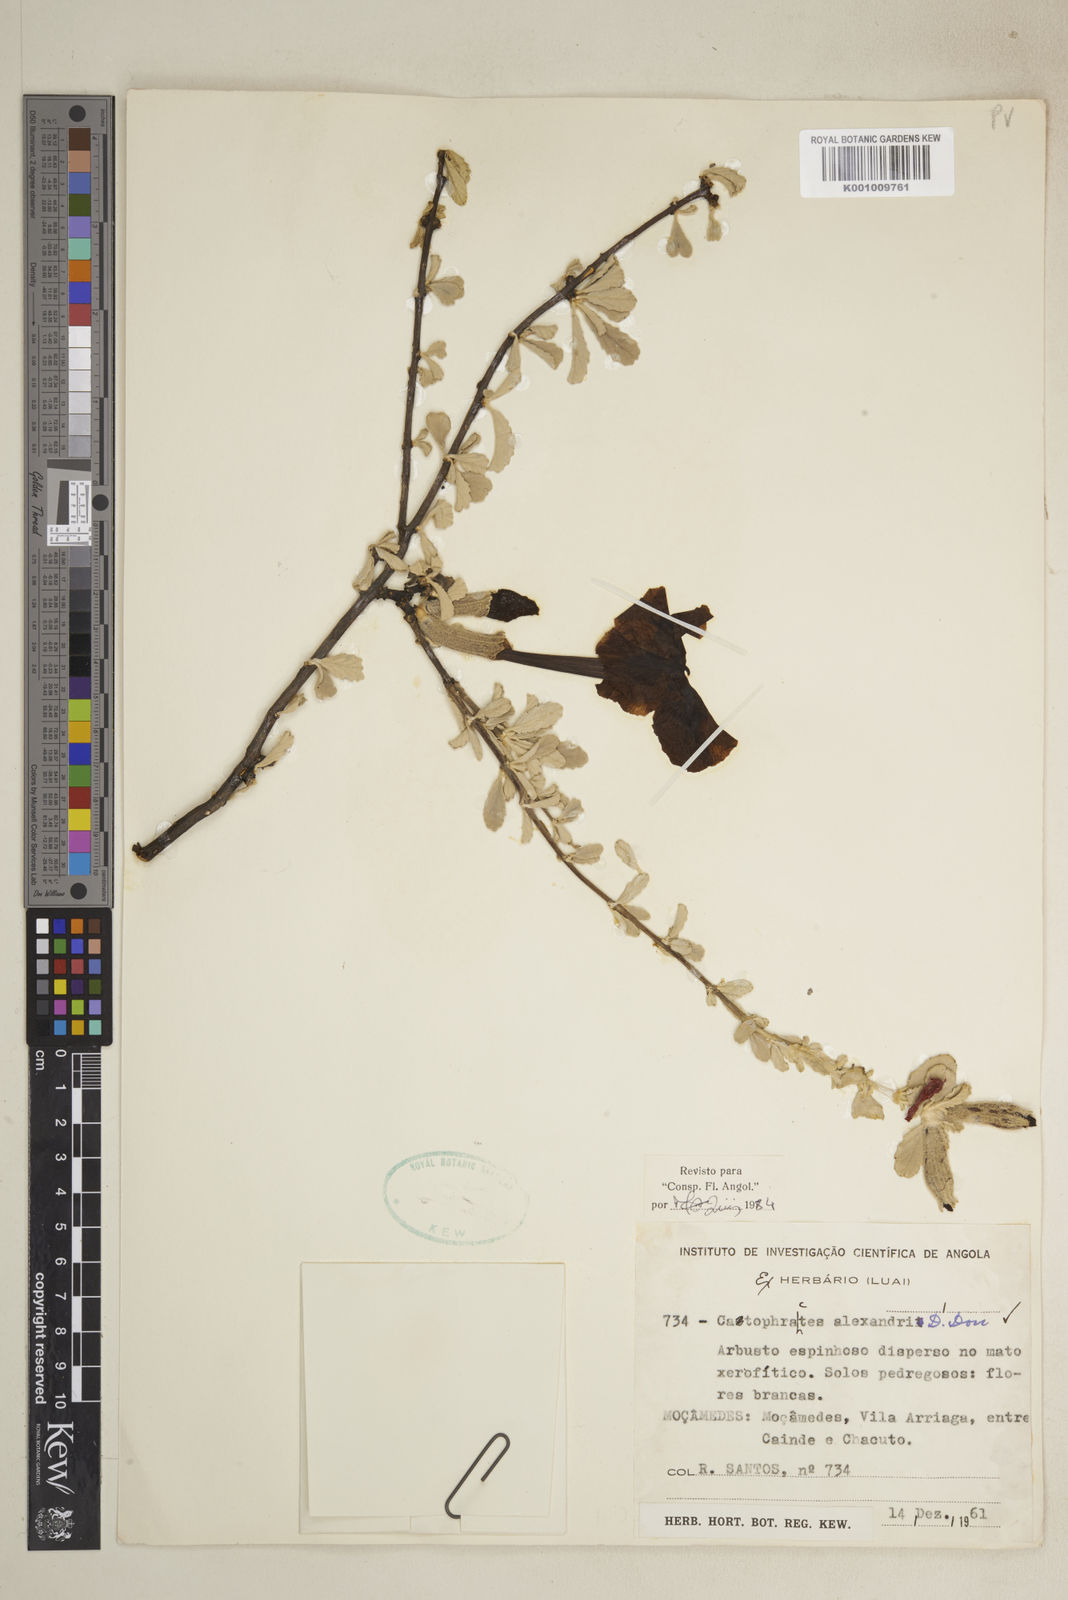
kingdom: Plantae
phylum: Tracheophyta
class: Magnoliopsida
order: Lamiales
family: Bignoniaceae
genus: Catophractes
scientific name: Catophractes alexandri
